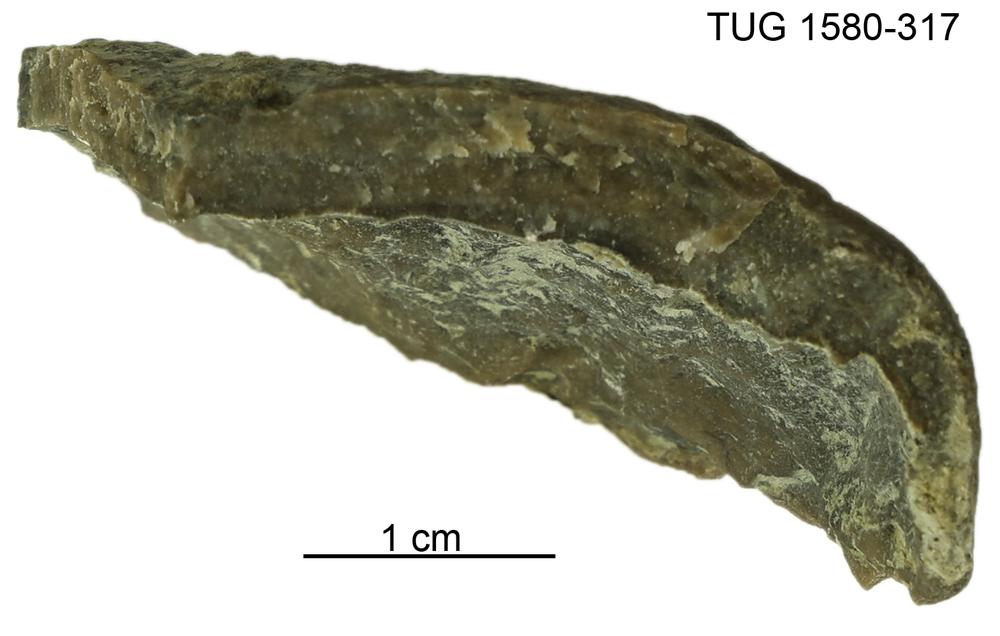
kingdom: Animalia
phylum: Porifera
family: Stromatoporidae
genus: Stromatopora
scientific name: Stromatopora
